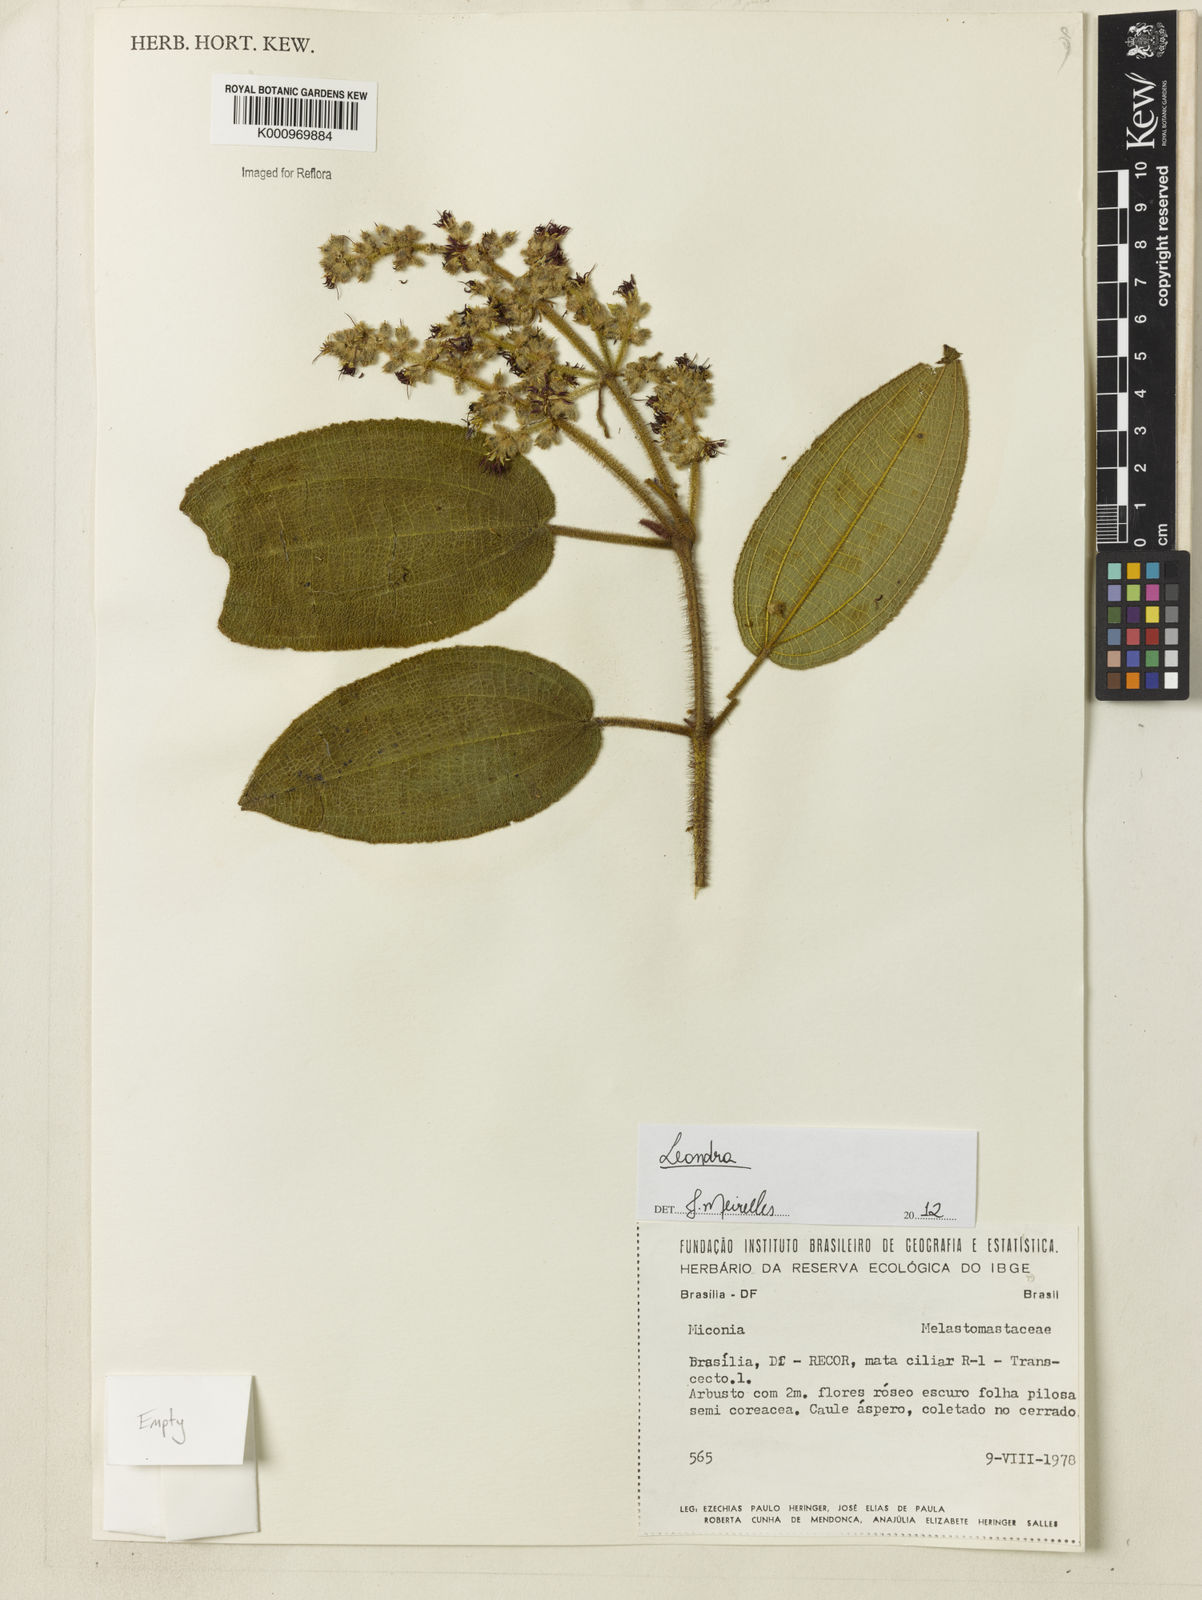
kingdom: Plantae
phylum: Tracheophyta
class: Magnoliopsida
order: Myrtales
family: Melastomataceae
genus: Miconia
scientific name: Miconia
